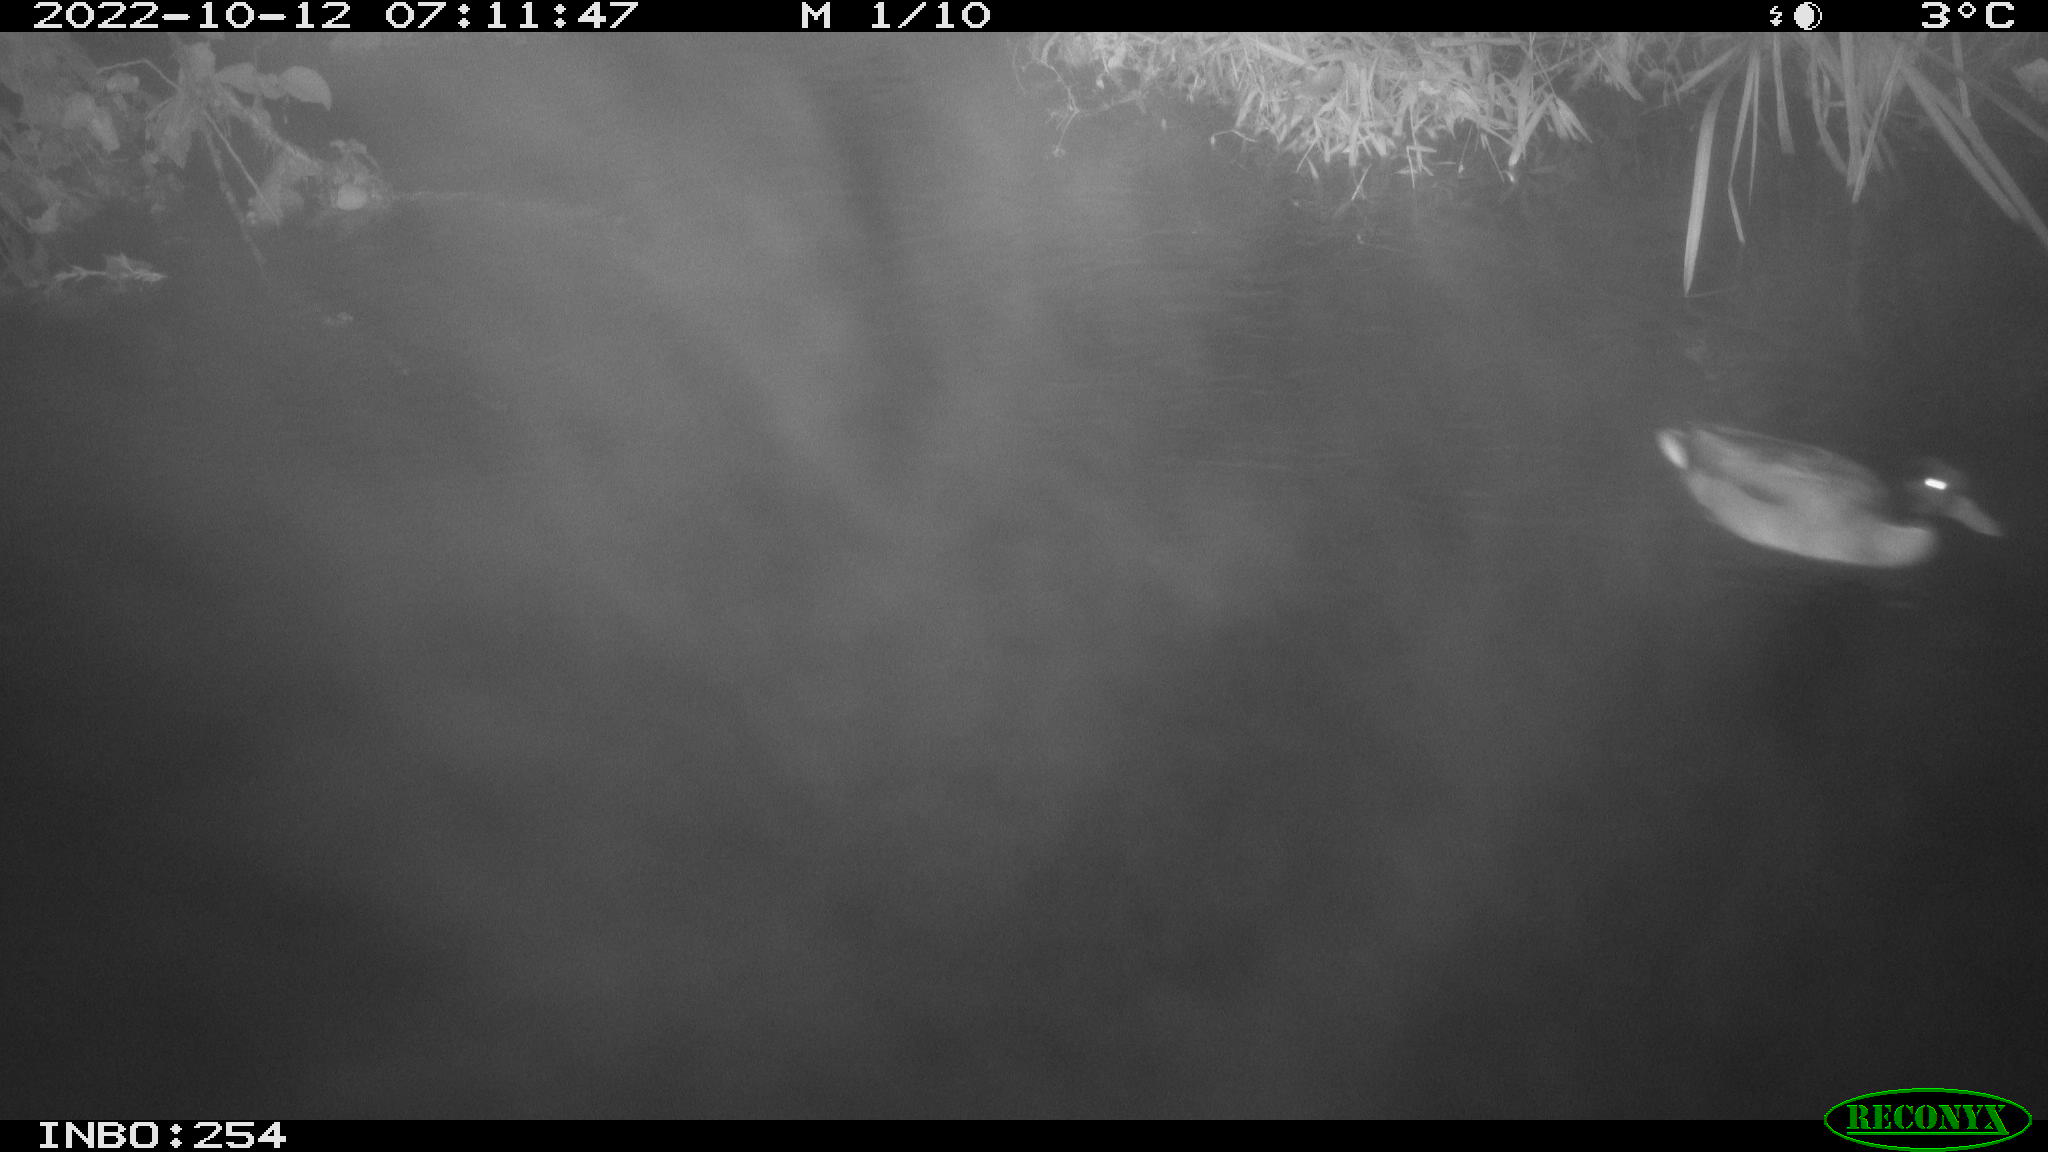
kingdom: Animalia
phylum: Chordata
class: Aves
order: Anseriformes
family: Anatidae
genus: Anas
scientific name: Anas
